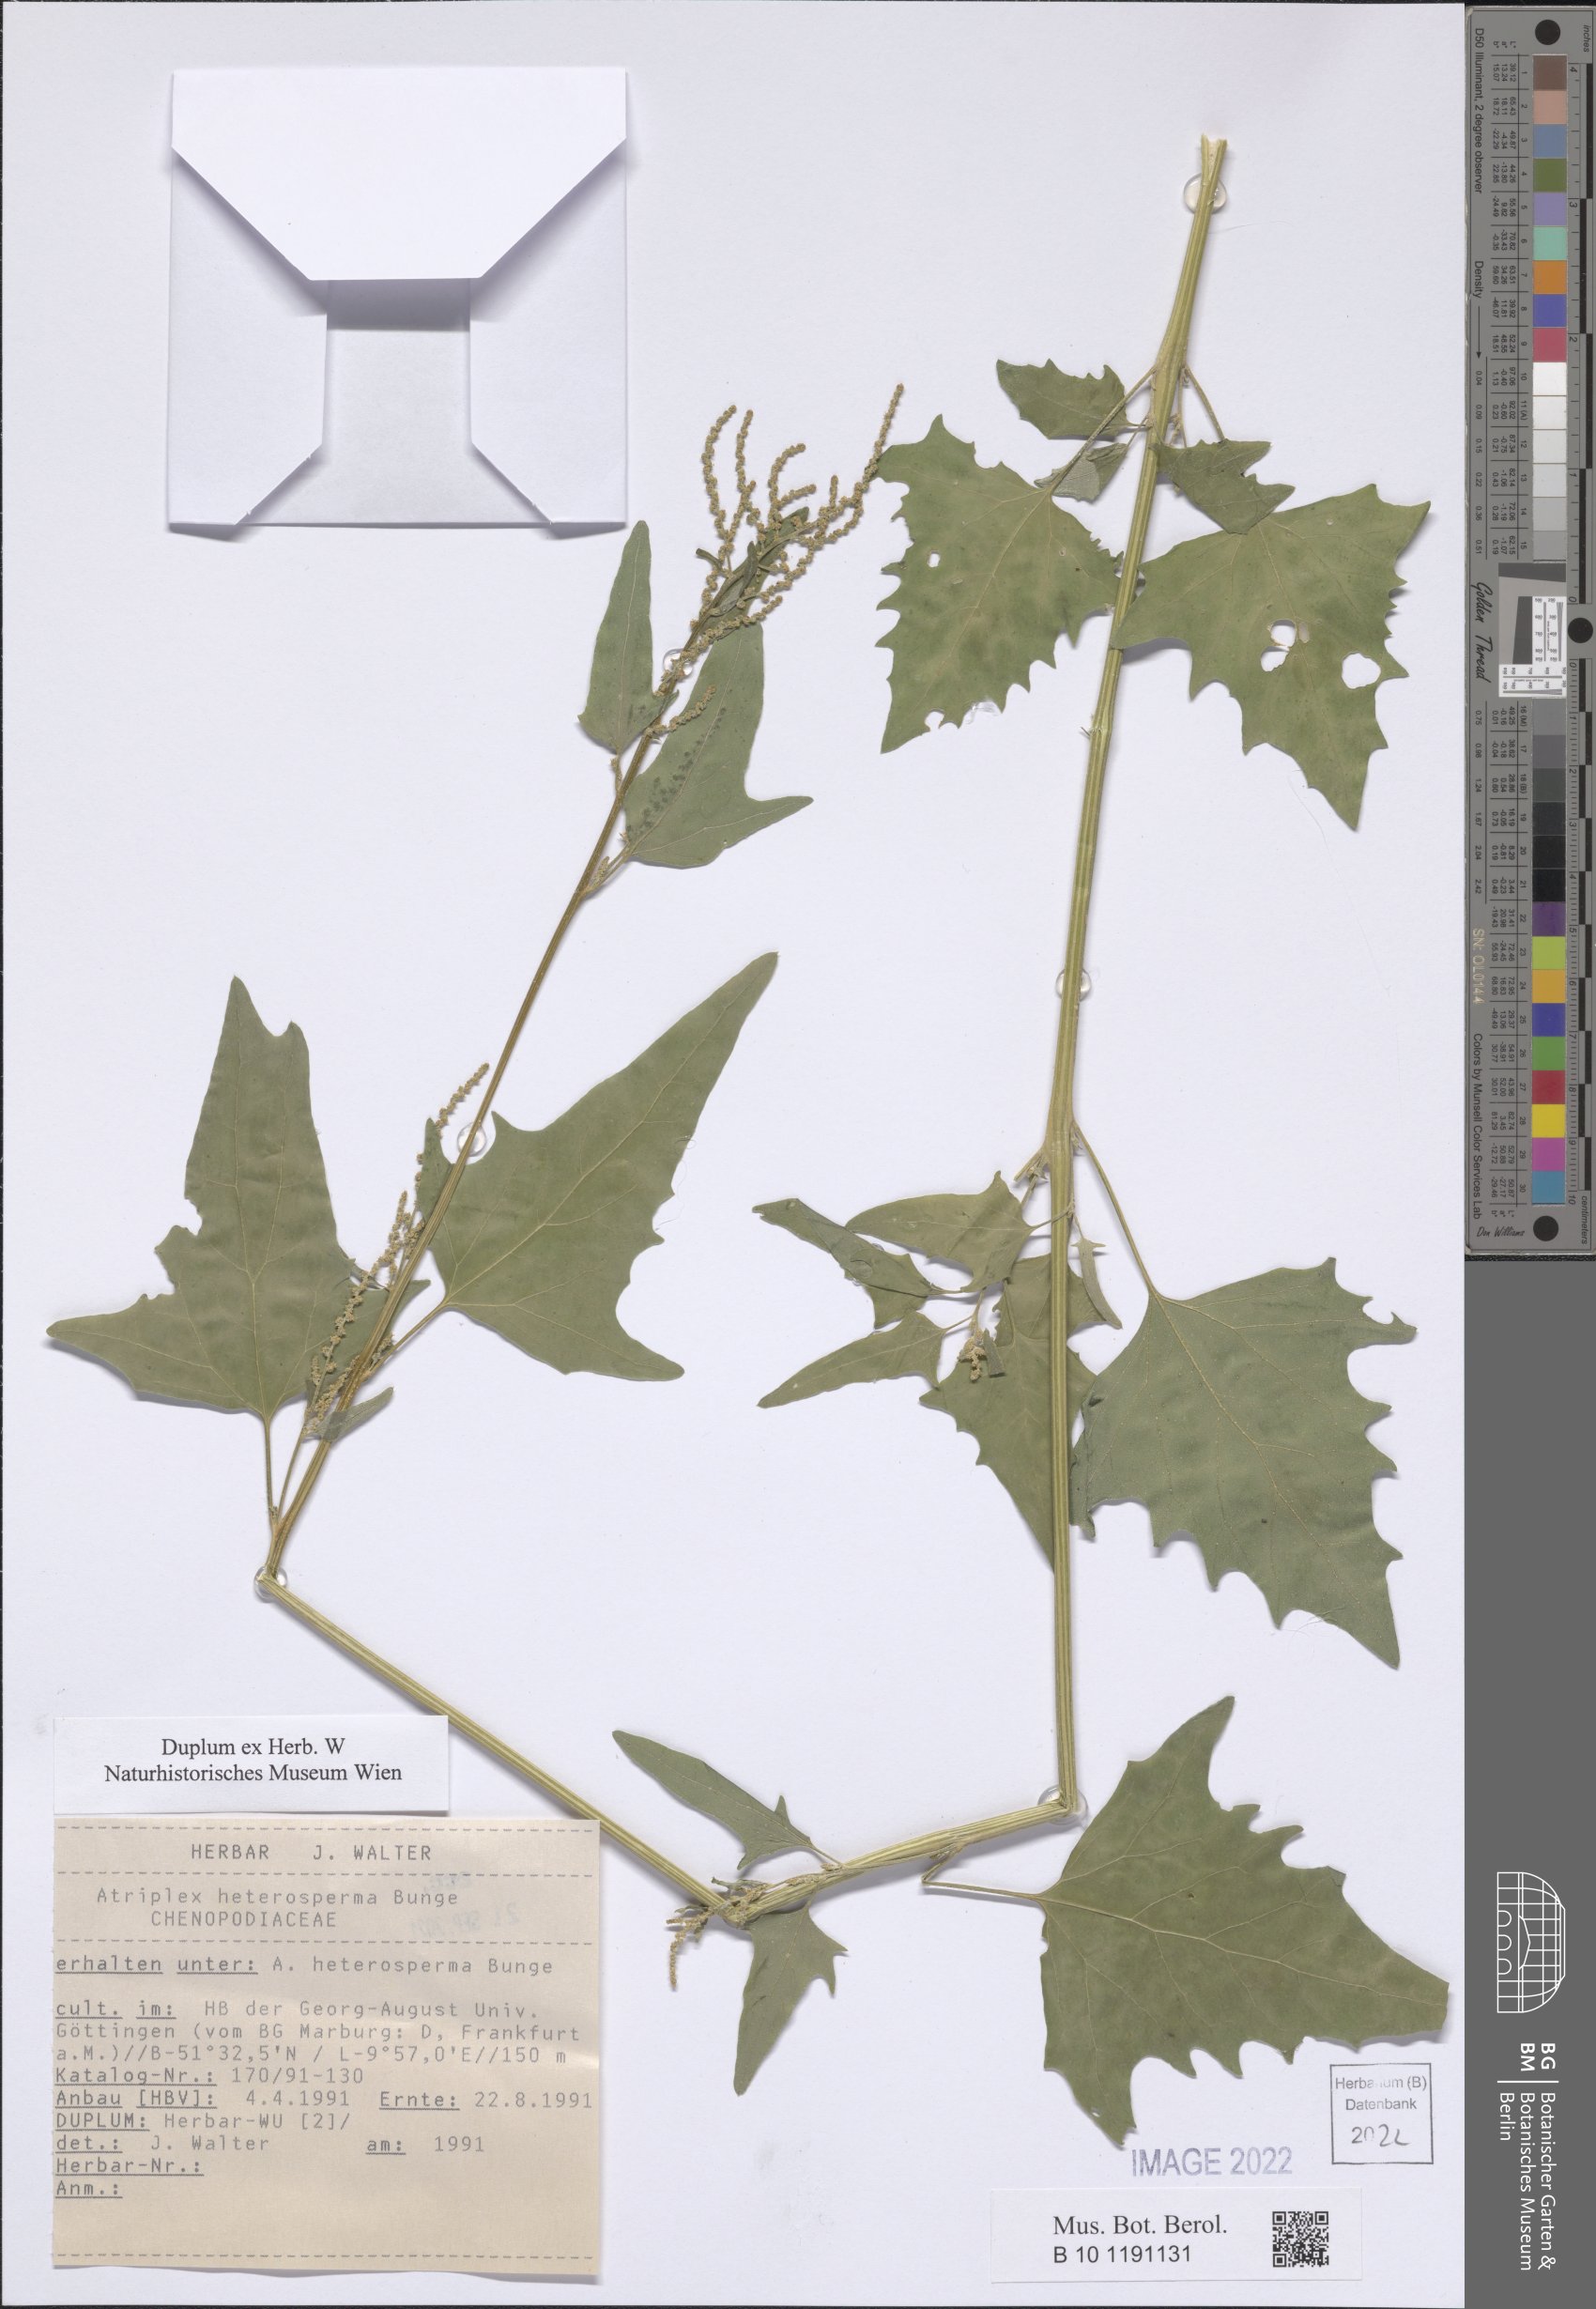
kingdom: Plantae
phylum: Tracheophyta
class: Magnoliopsida
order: Caryophyllales
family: Amaranthaceae
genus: Atriplex
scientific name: Atriplex micrantha
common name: Twoscale saltbush
